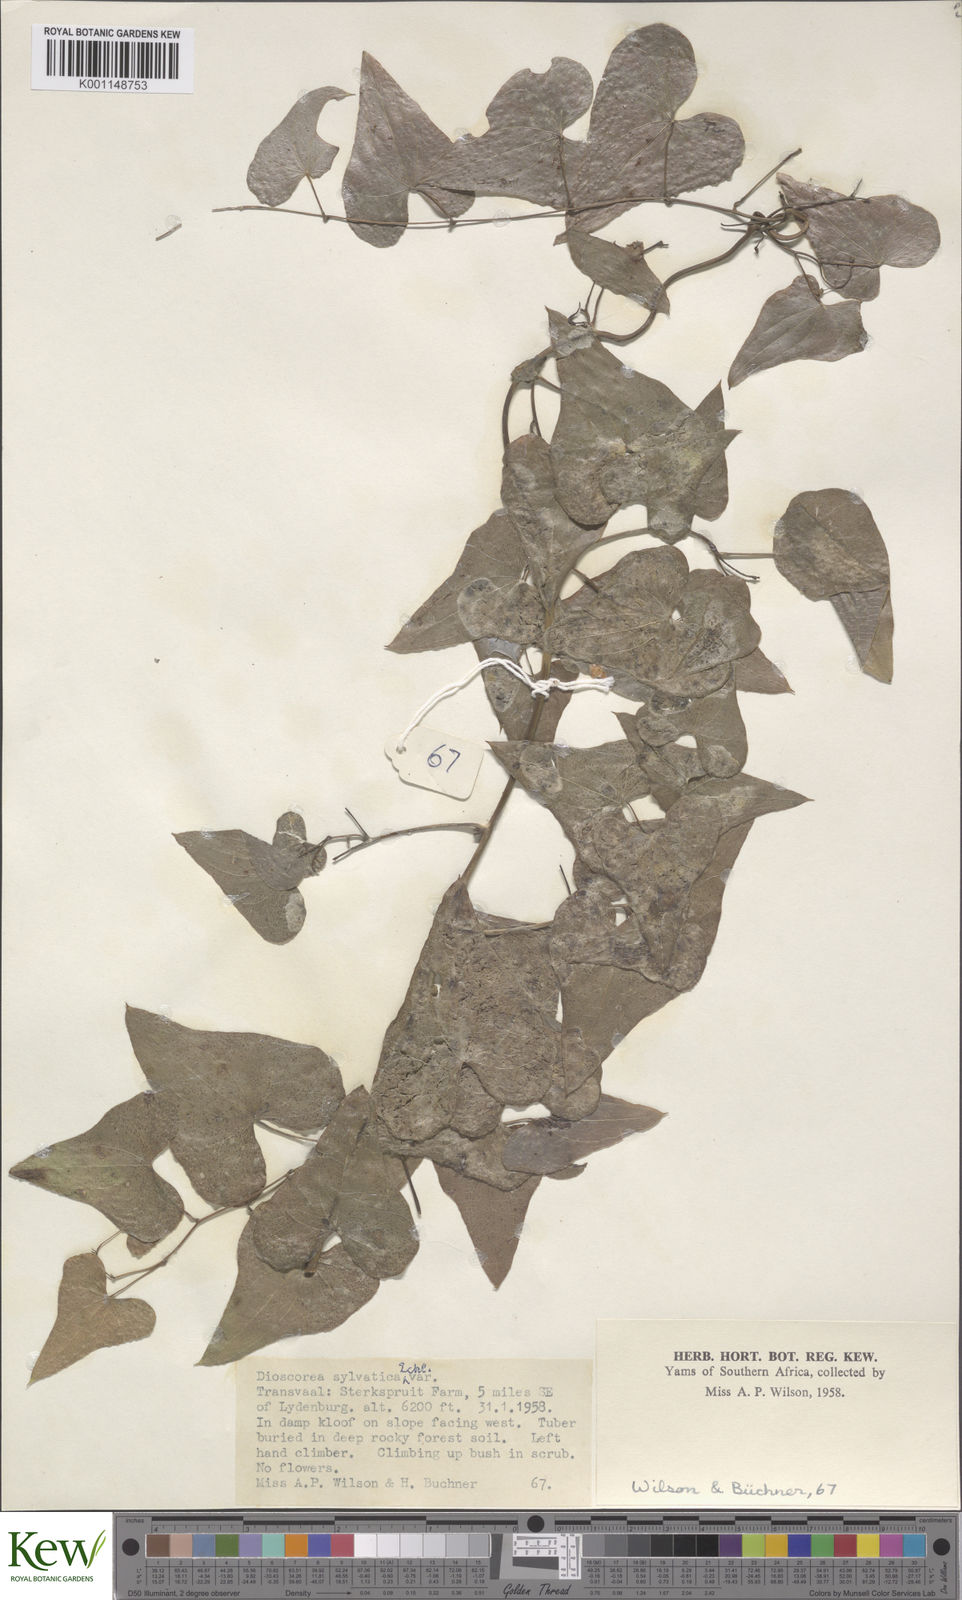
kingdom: Plantae
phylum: Tracheophyta
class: Liliopsida
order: Dioscoreales
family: Dioscoreaceae
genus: Dioscorea
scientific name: Dioscorea sylvatica
